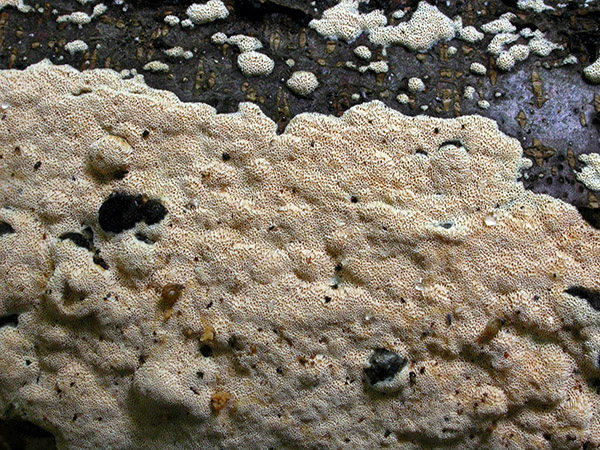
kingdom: Fungi
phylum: Basidiomycota
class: Agaricomycetes
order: Hymenochaetales
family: Schizoporaceae
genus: Xylodon
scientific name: Xylodon flaviporus
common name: gulporet tandsvamp
